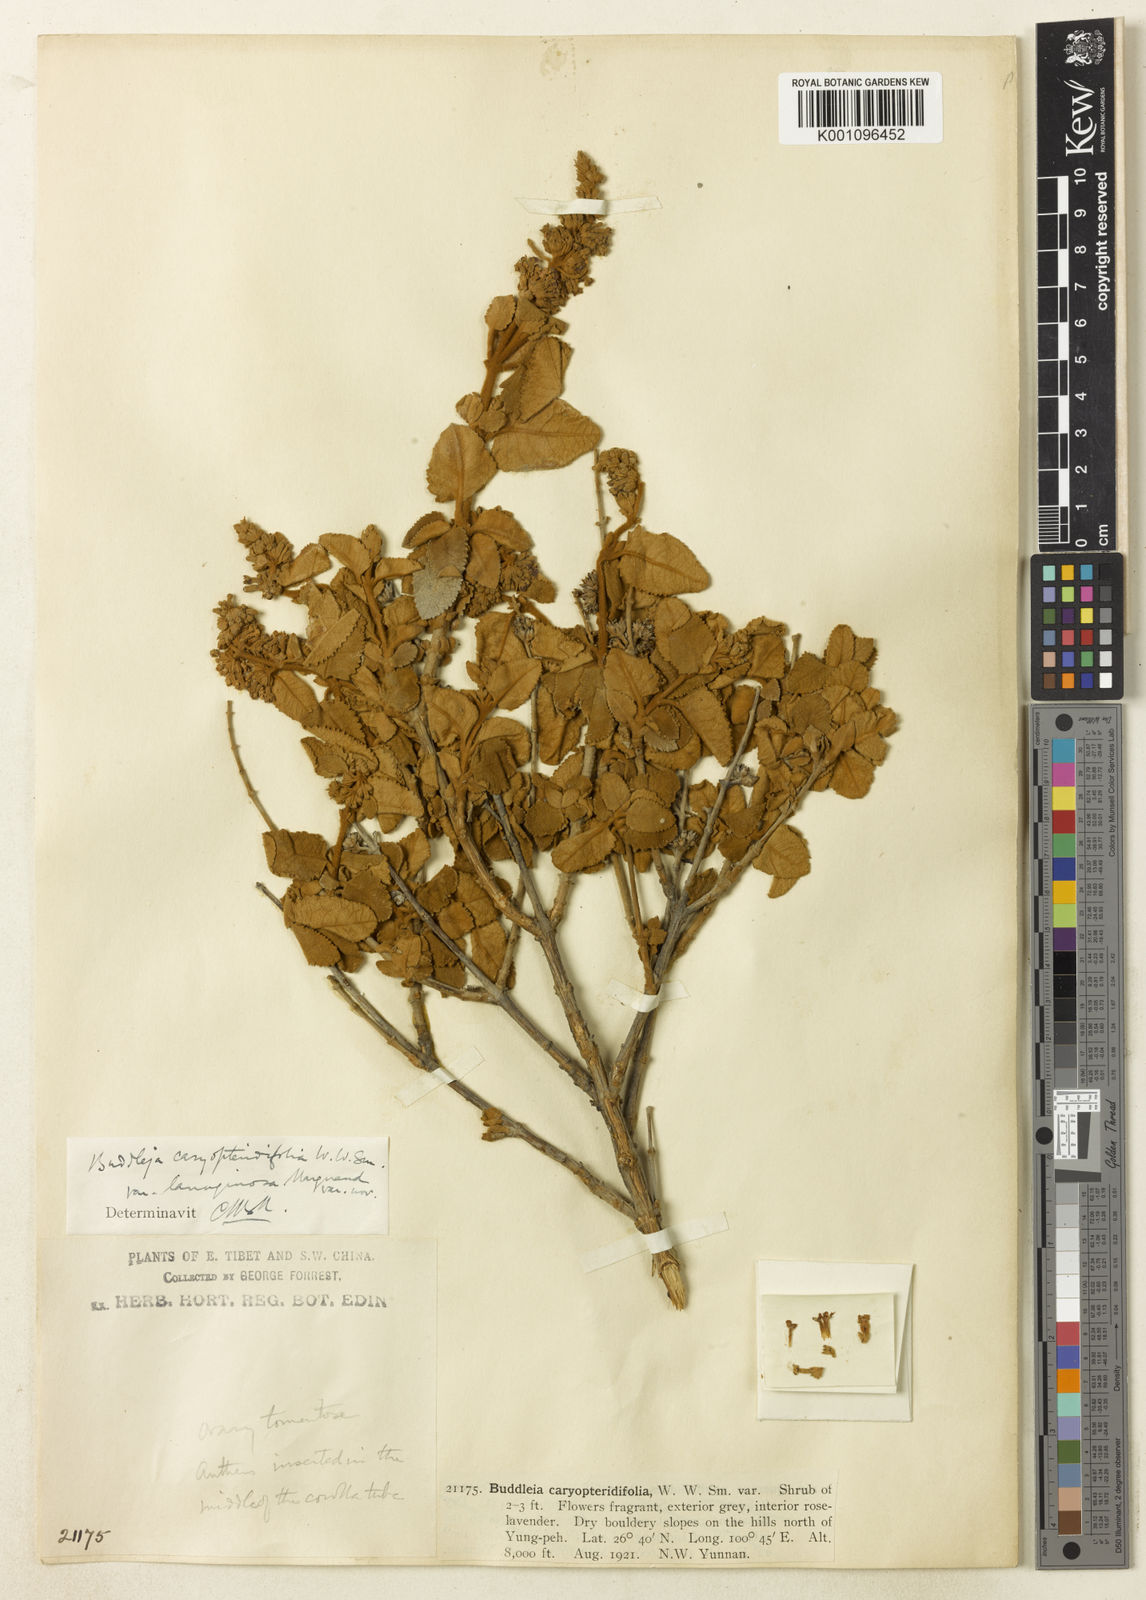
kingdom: Plantae
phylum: Tracheophyta
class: Magnoliopsida
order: Lamiales
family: Scrophulariaceae
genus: Buddleja
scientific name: Buddleja crispa
